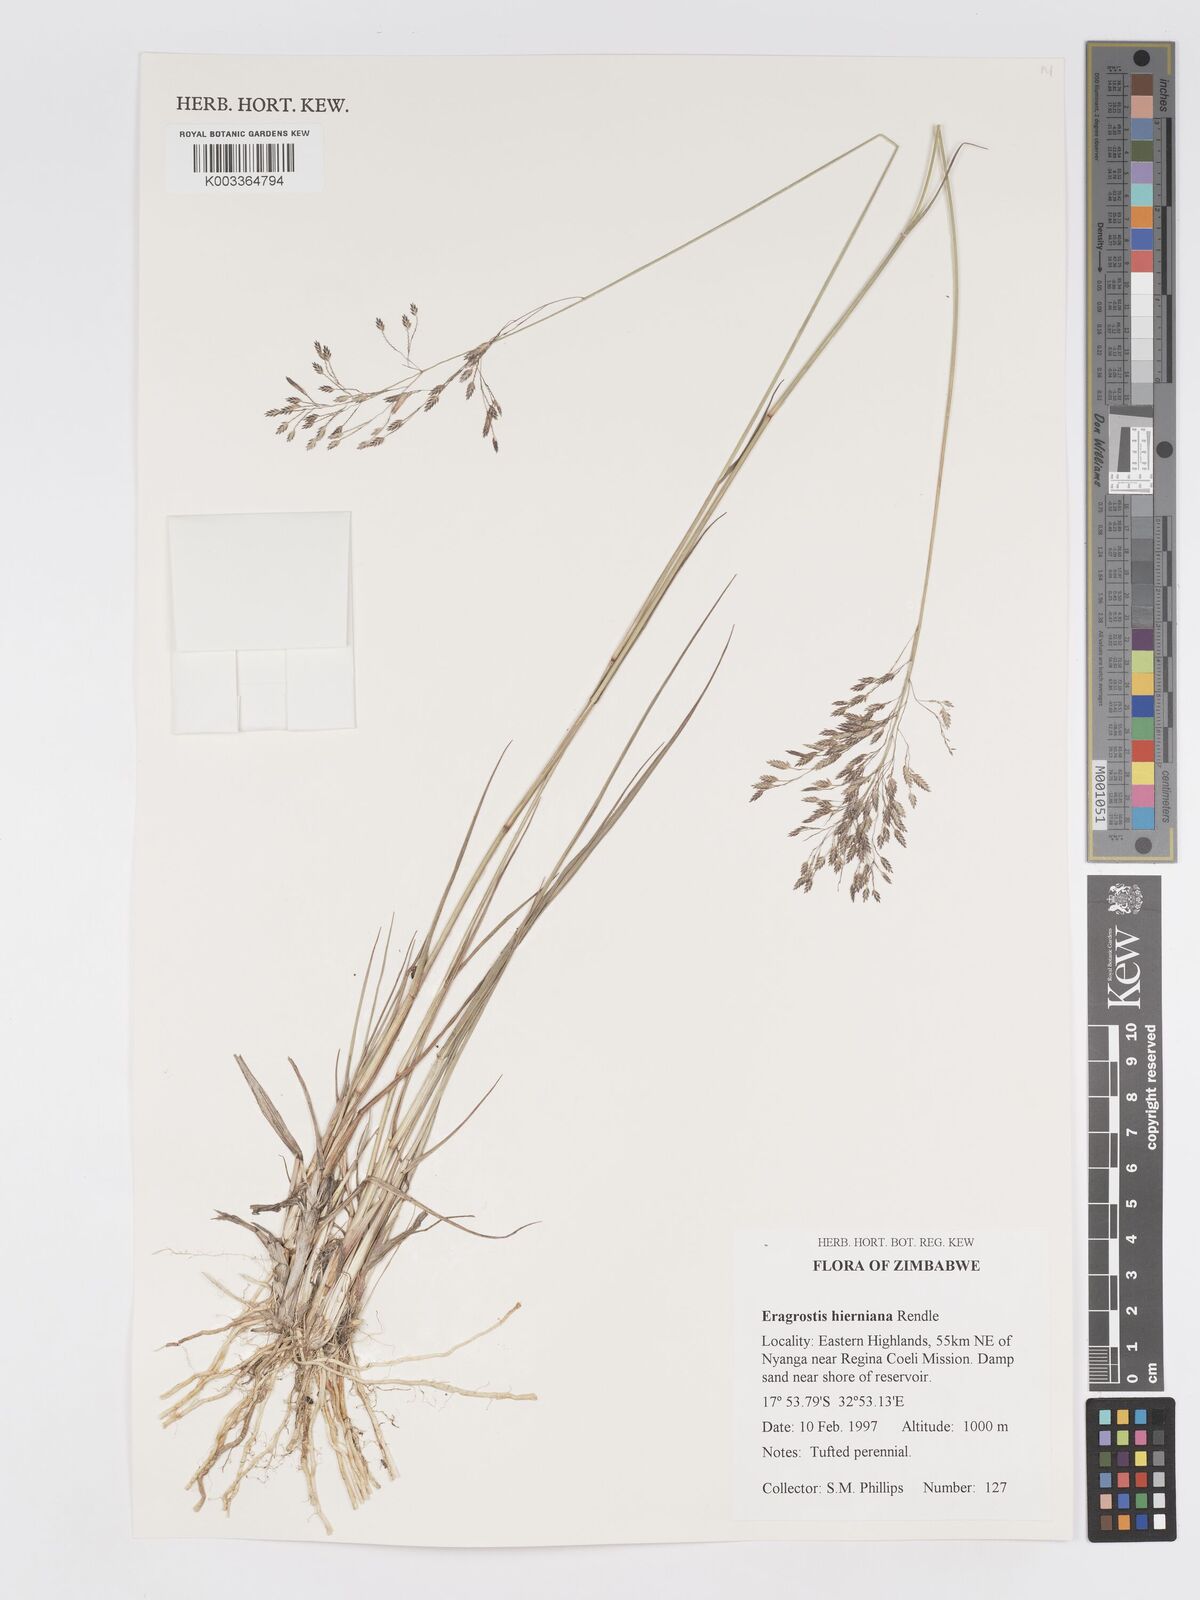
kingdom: Plantae
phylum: Tracheophyta
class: Liliopsida
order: Poales
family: Poaceae
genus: Eragrostis
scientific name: Eragrostis hierniana
